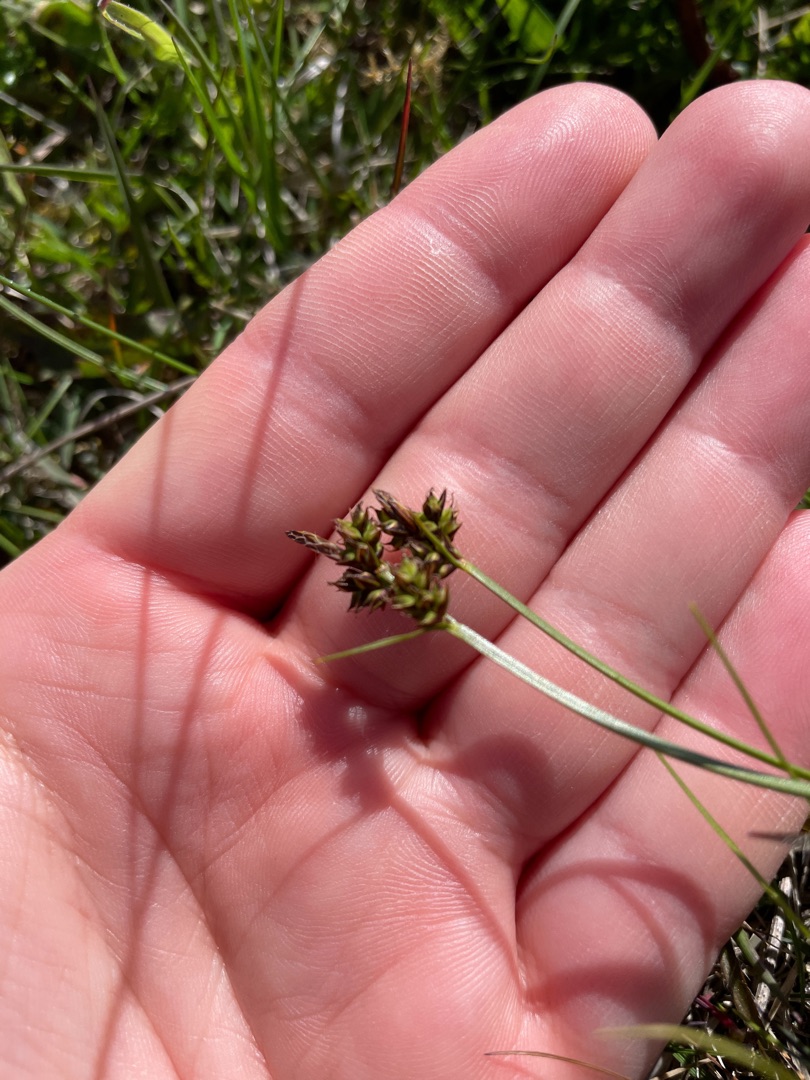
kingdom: Plantae
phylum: Tracheophyta
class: Liliopsida
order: Poales
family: Cyperaceae
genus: Carex
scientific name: Carex pilulifera
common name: Pille-star
